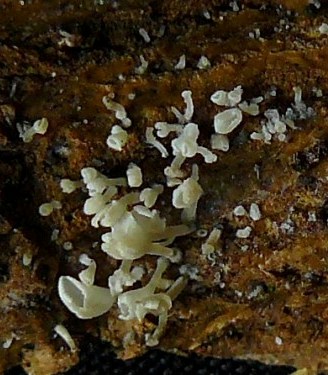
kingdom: Fungi
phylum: Basidiomycota
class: Agaricomycetes
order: Agaricales
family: Marasmiaceae
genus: Calyptella
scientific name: Calyptella capula
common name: hvidlig nældehue
